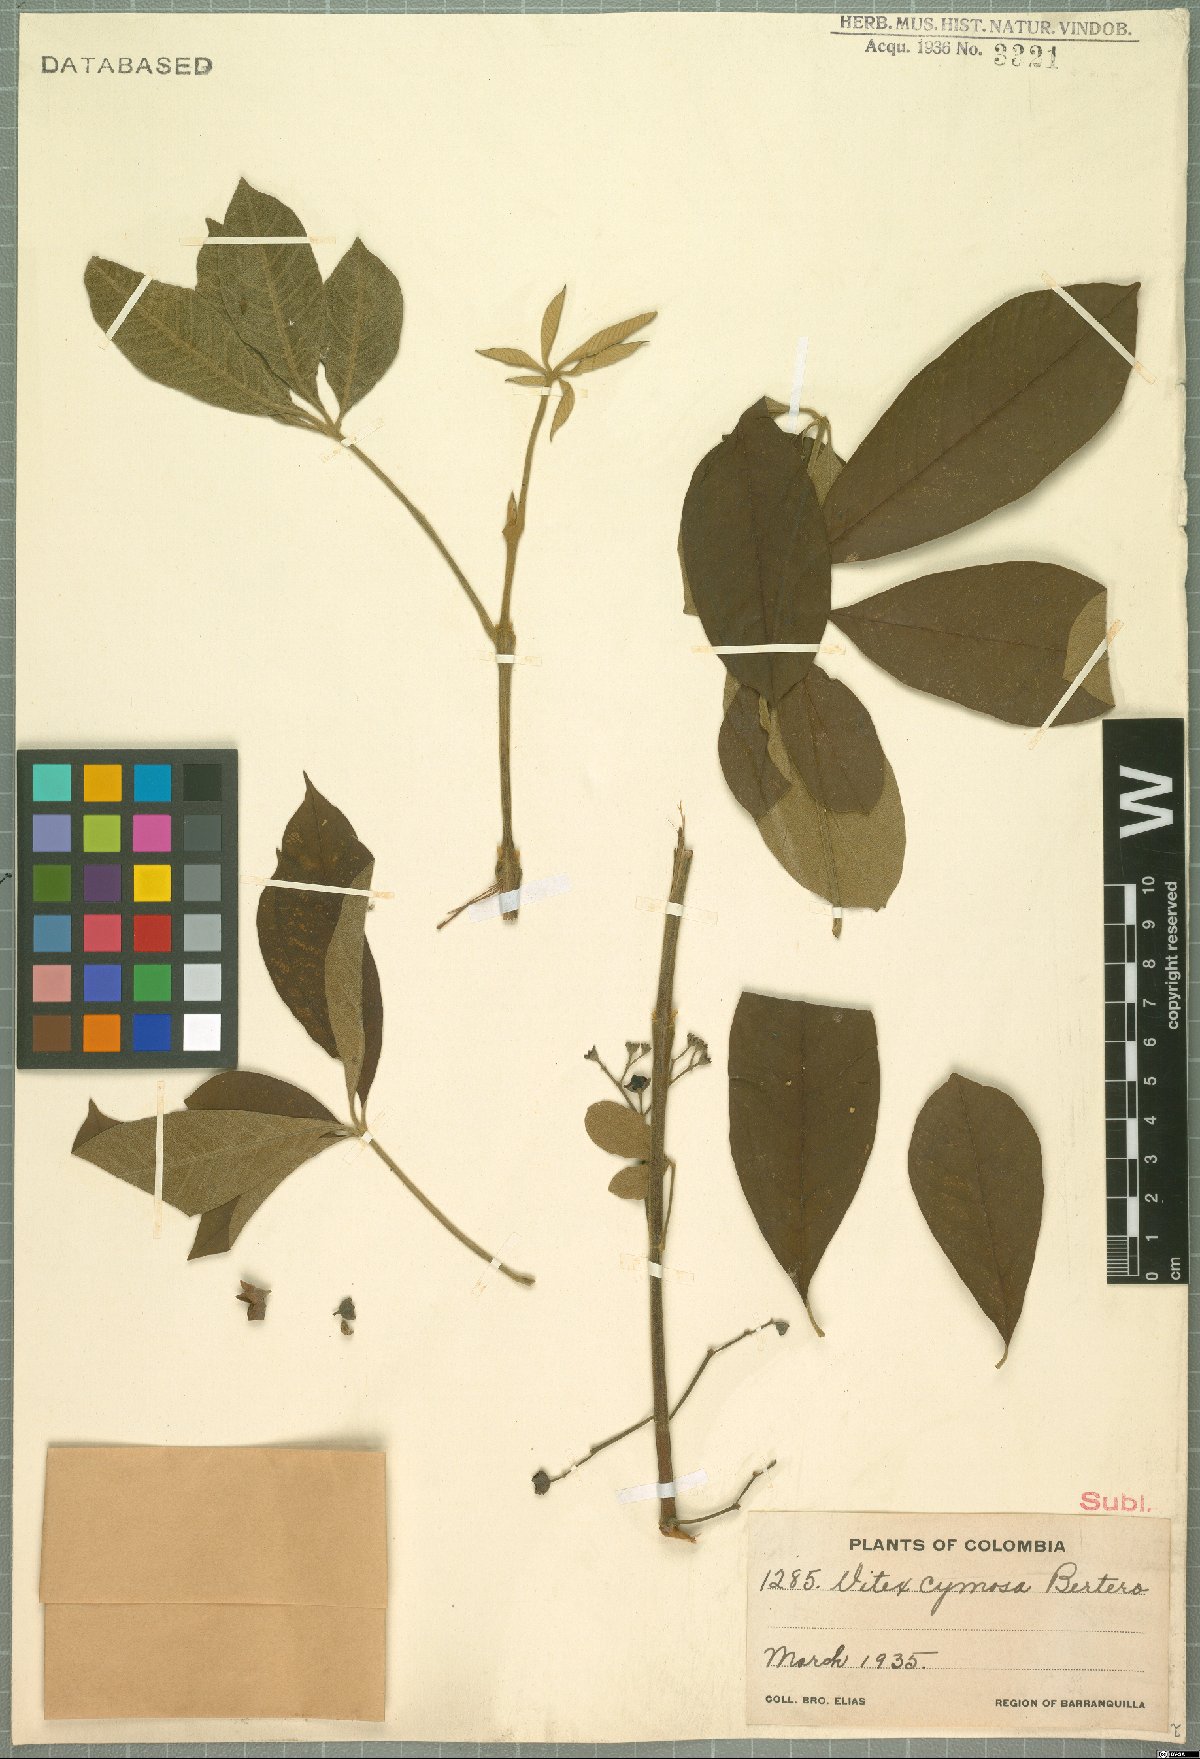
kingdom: Plantae
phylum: Tracheophyta
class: Magnoliopsida
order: Lamiales
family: Lamiaceae
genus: Vitex
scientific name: Vitex cymosa
